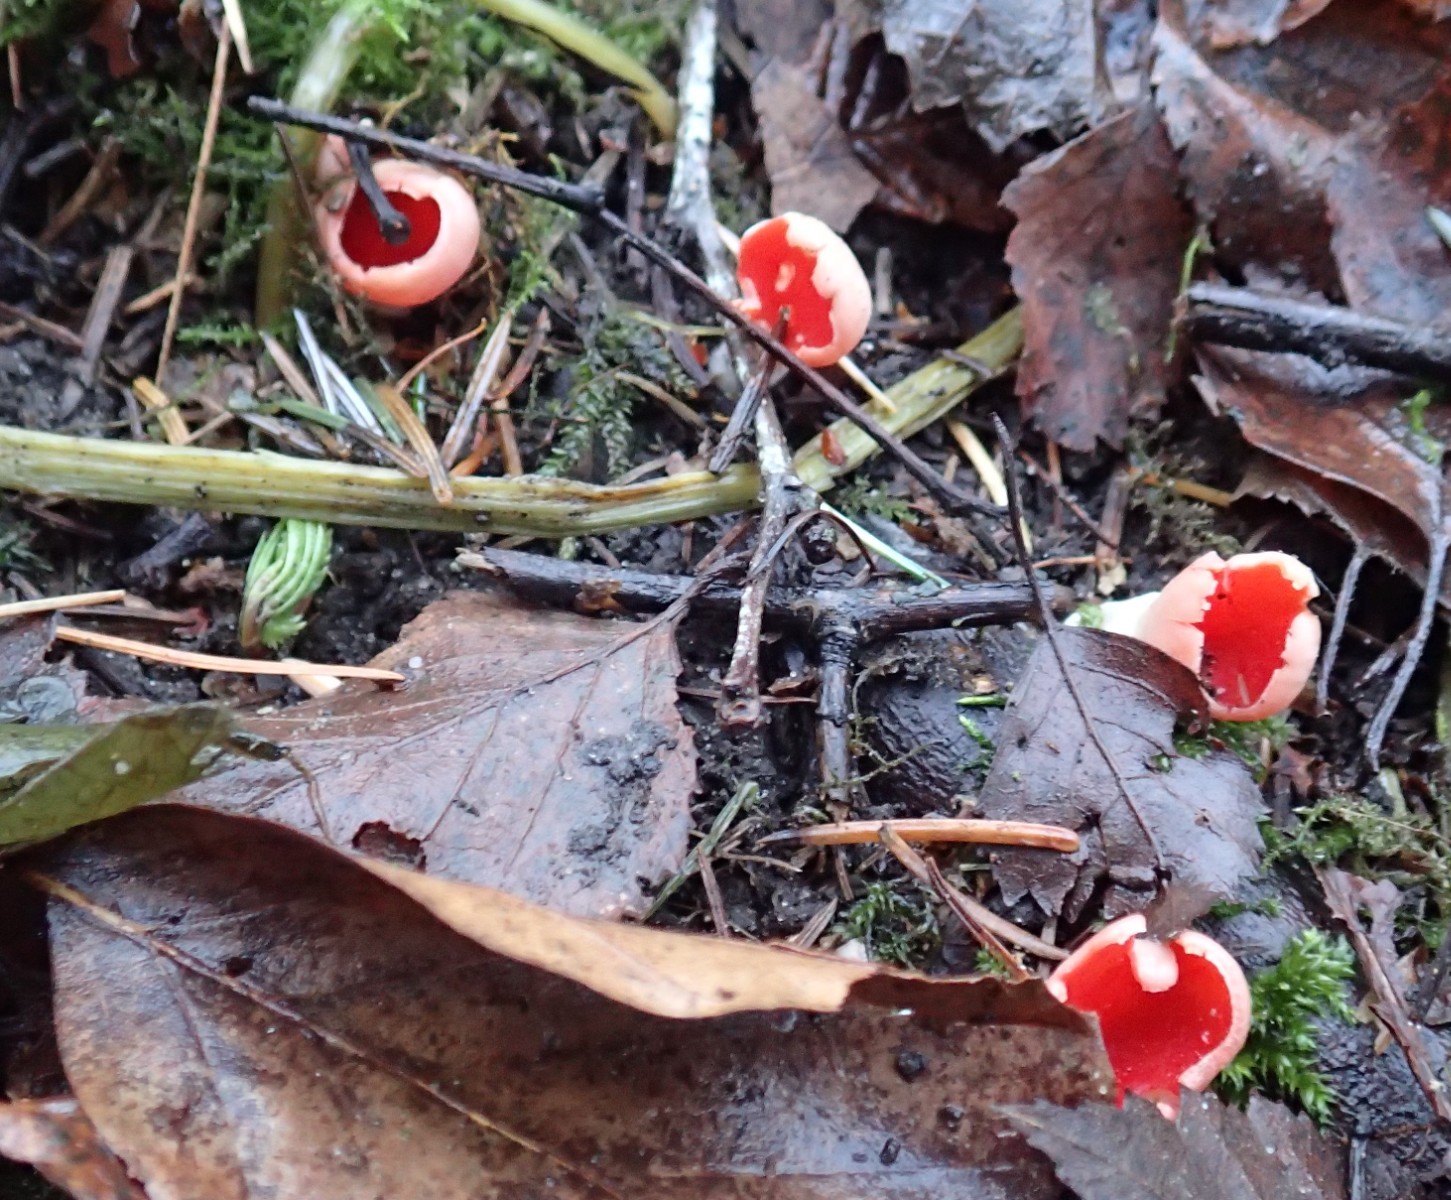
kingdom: Fungi
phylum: Ascomycota
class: Pezizomycetes
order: Pezizales
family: Sarcoscyphaceae
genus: Sarcoscypha
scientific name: Sarcoscypha austriaca
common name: krølhåret pragtbæger
